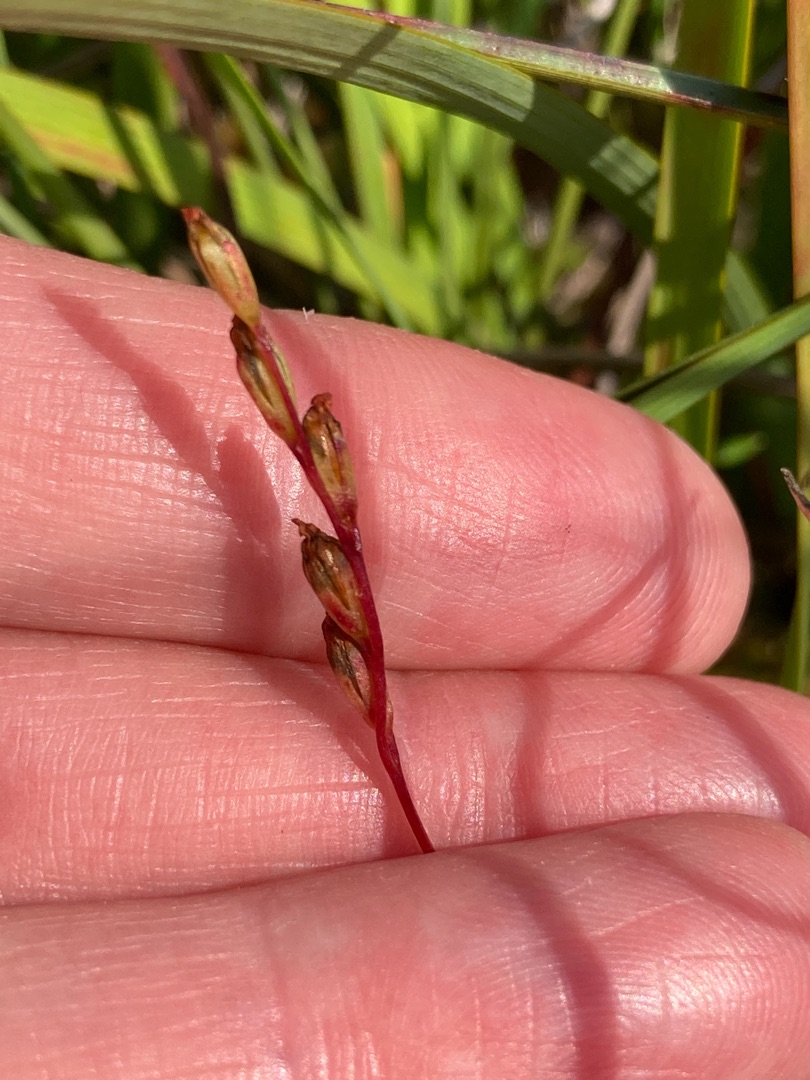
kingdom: Plantae
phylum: Tracheophyta
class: Magnoliopsida
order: Caryophyllales
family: Droseraceae
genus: Drosera
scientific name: Drosera rotundifolia
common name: Rundbladet soldug
